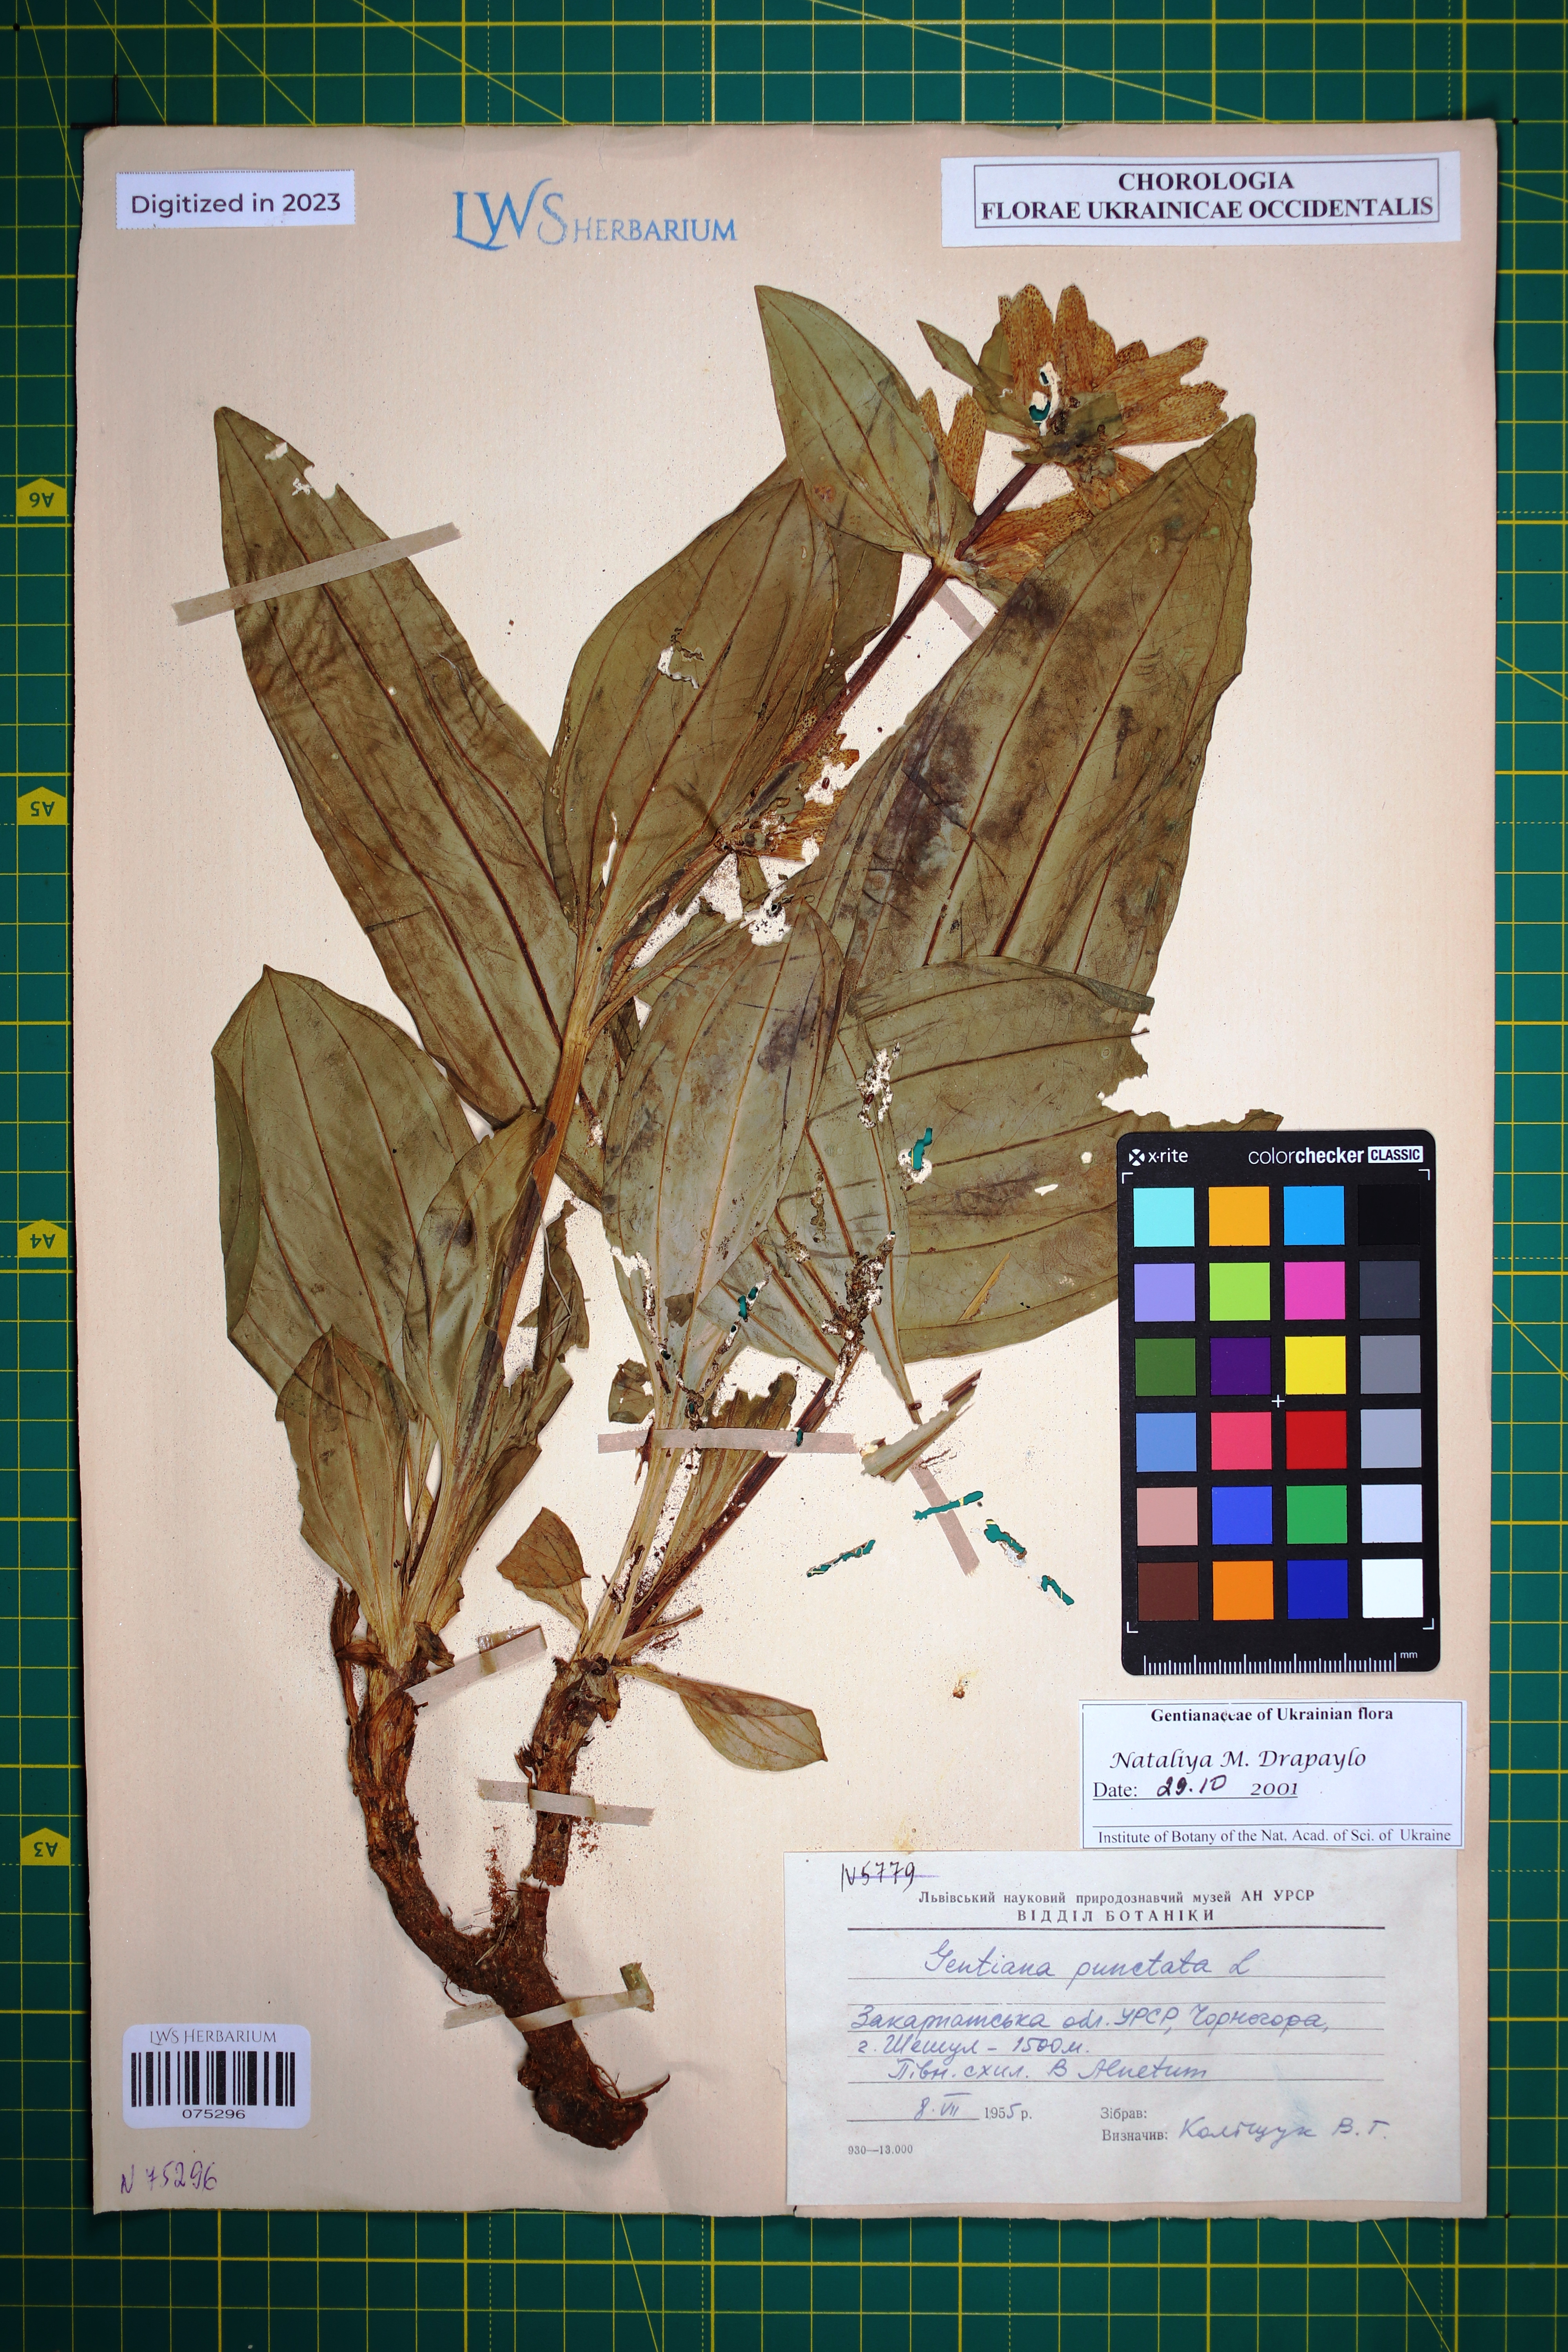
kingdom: Plantae
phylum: Tracheophyta
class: Magnoliopsida
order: Gentianales
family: Gentianaceae
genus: Gentiana
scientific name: Gentiana punctata
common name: Spotted gentian
